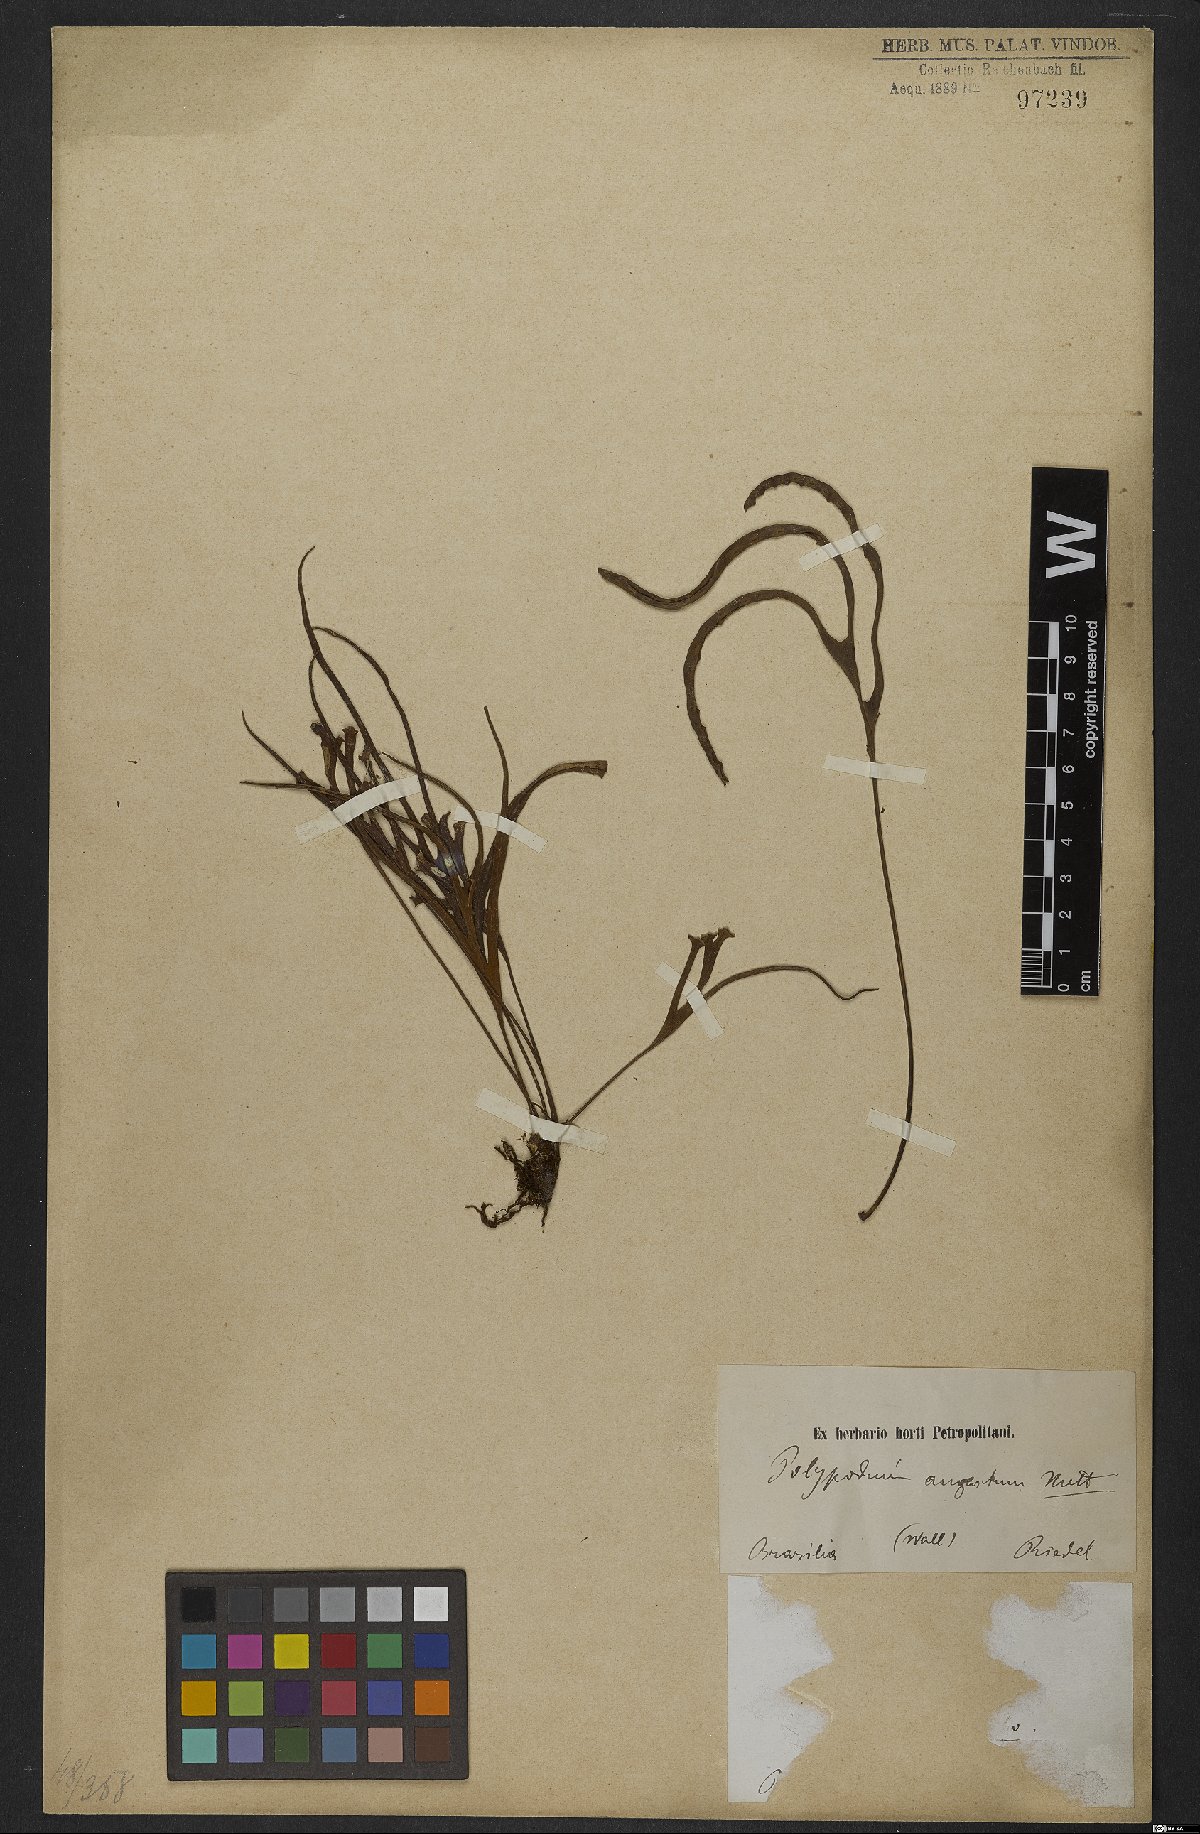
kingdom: Plantae
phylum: Tracheophyta
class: Polypodiopsida
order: Polypodiales
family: Polypodiaceae
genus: Pleopeltis
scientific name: Pleopeltis angusta
